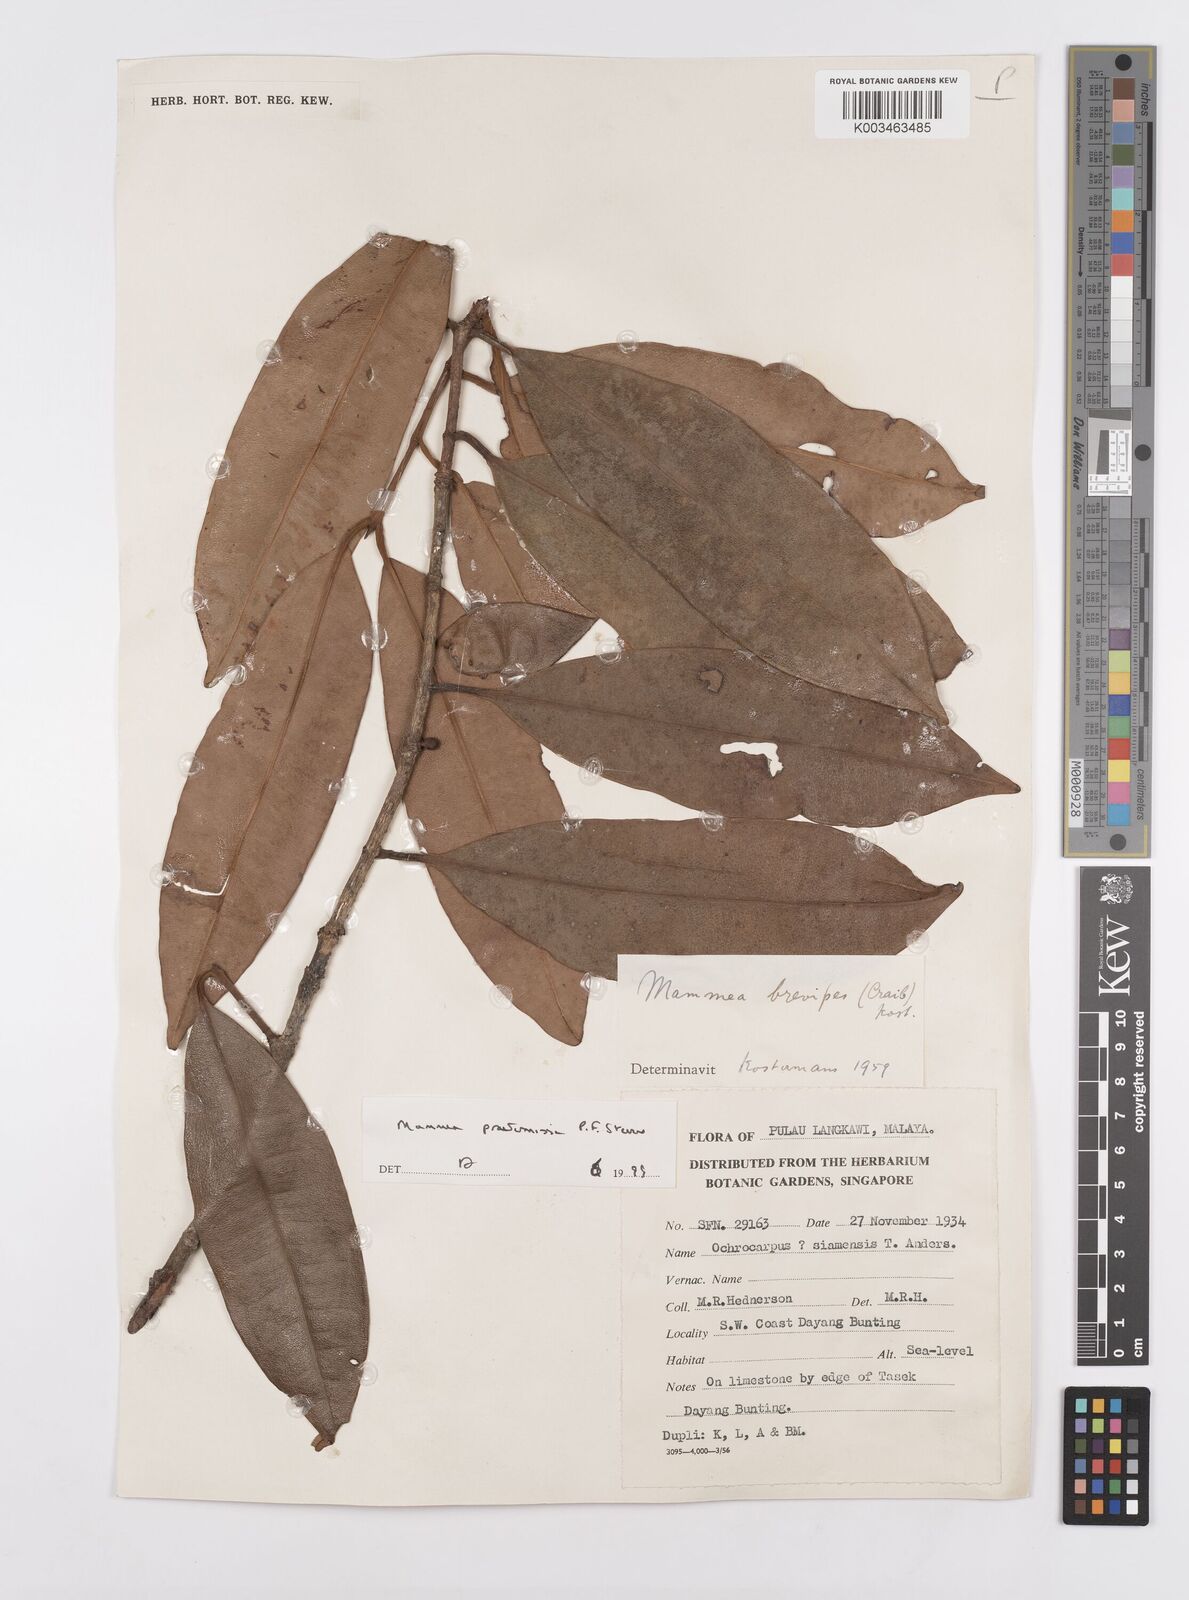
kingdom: Plantae
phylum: Tracheophyta
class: Magnoliopsida
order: Malpighiales
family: Calophyllaceae
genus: Mammea
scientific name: Mammea harmandii
